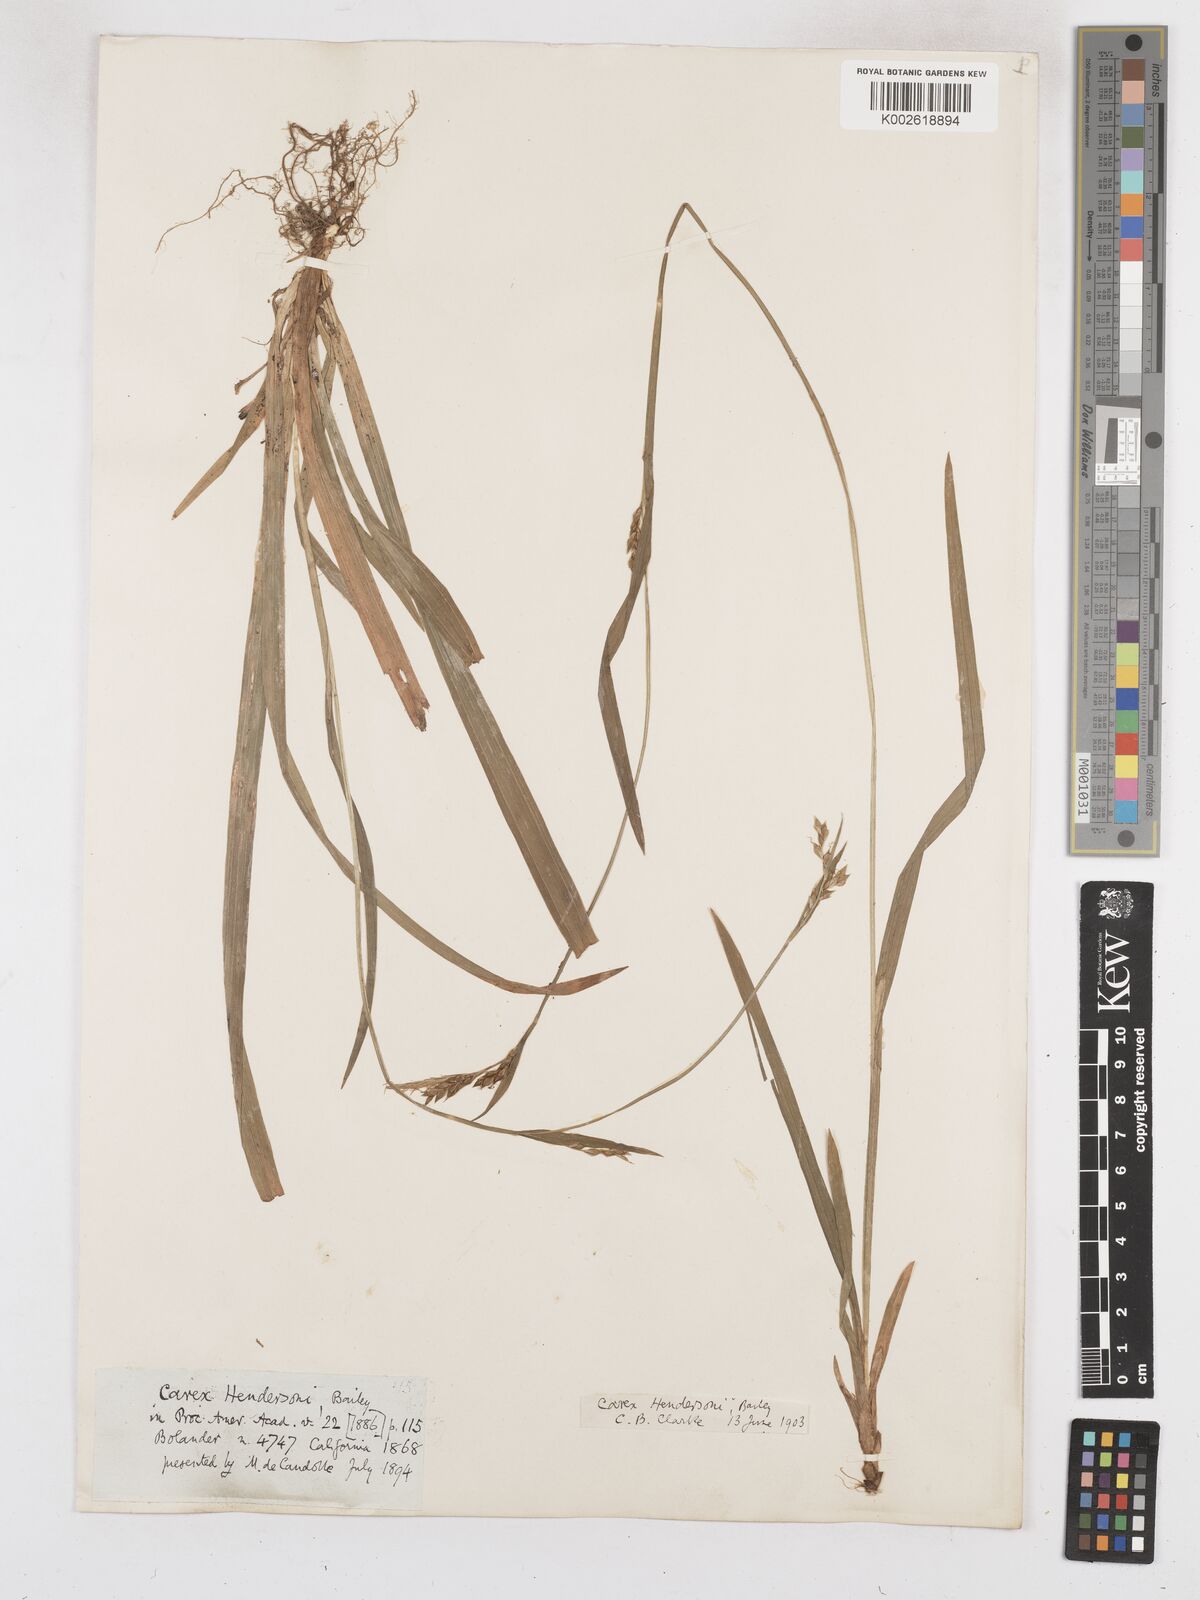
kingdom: Plantae
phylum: Tracheophyta
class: Liliopsida
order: Poales
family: Cyperaceae
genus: Carex
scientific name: Carex hendersonii
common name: Henderson's sedge
